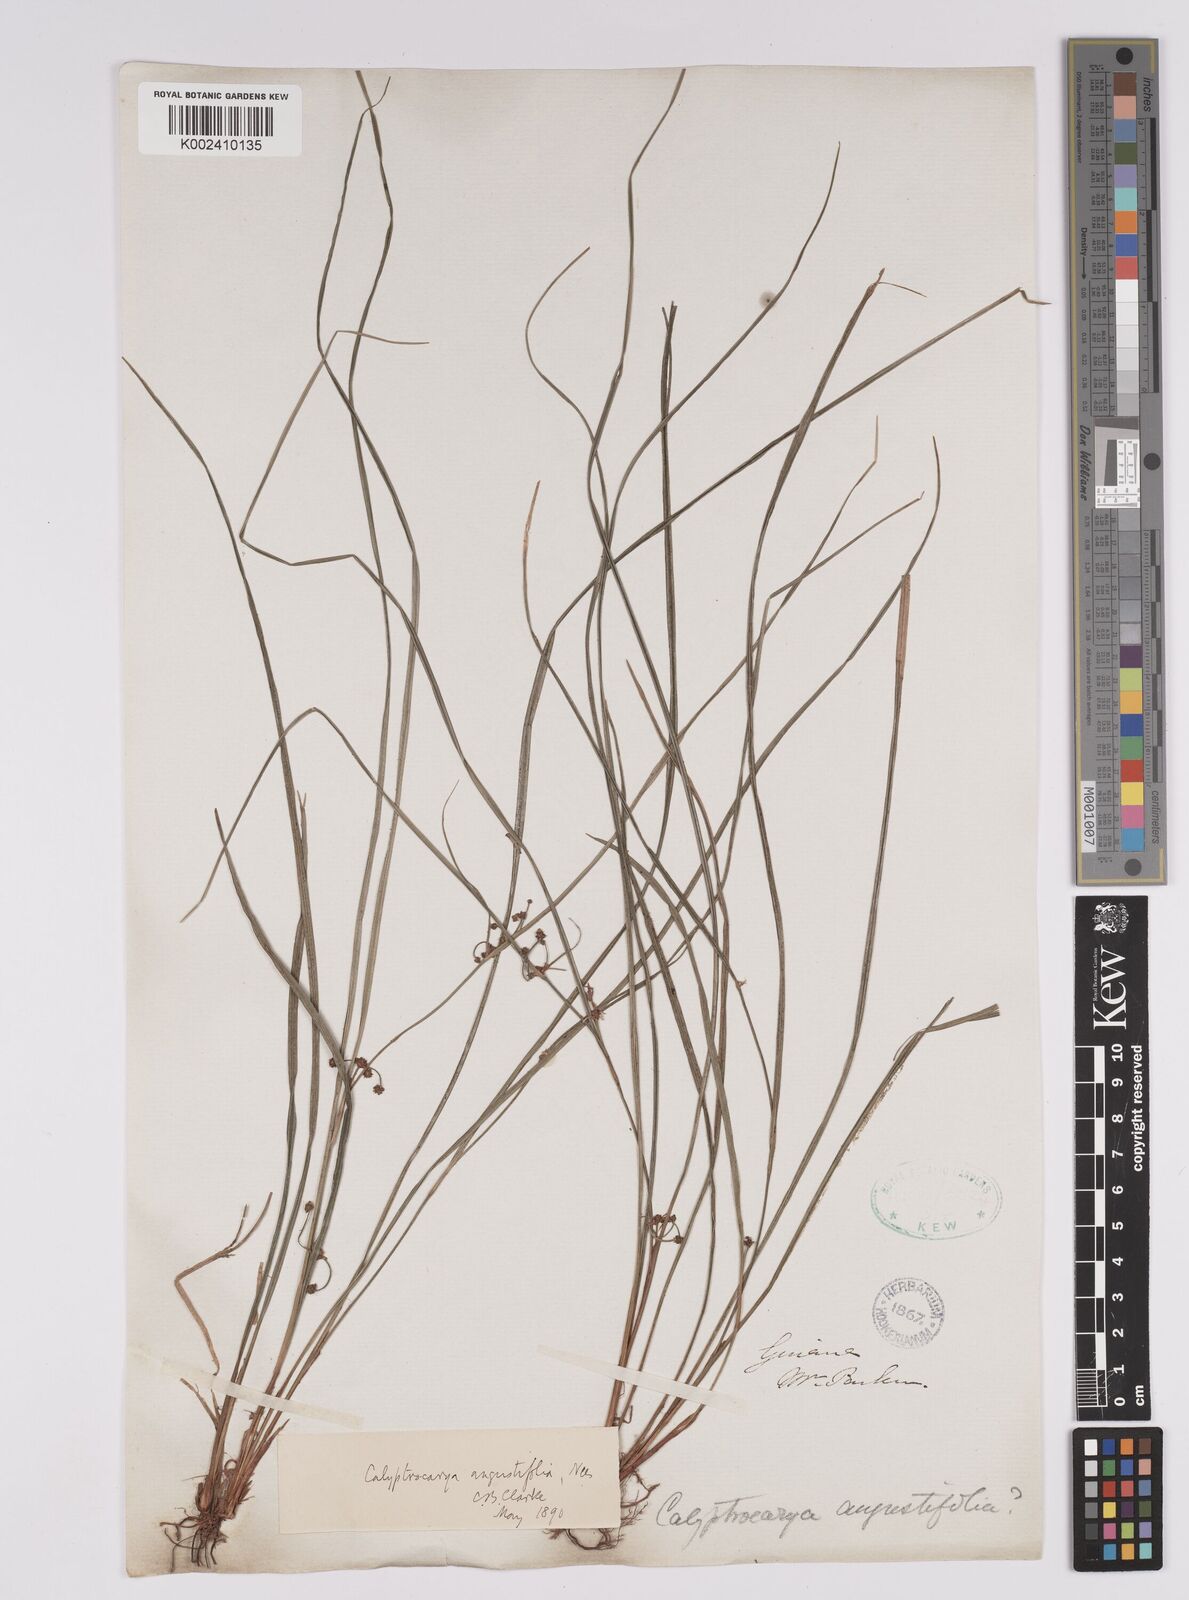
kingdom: Plantae
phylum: Tracheophyta
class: Liliopsida
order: Poales
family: Cyperaceae
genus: Calyptrocarya
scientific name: Calyptrocarya glomerulata
